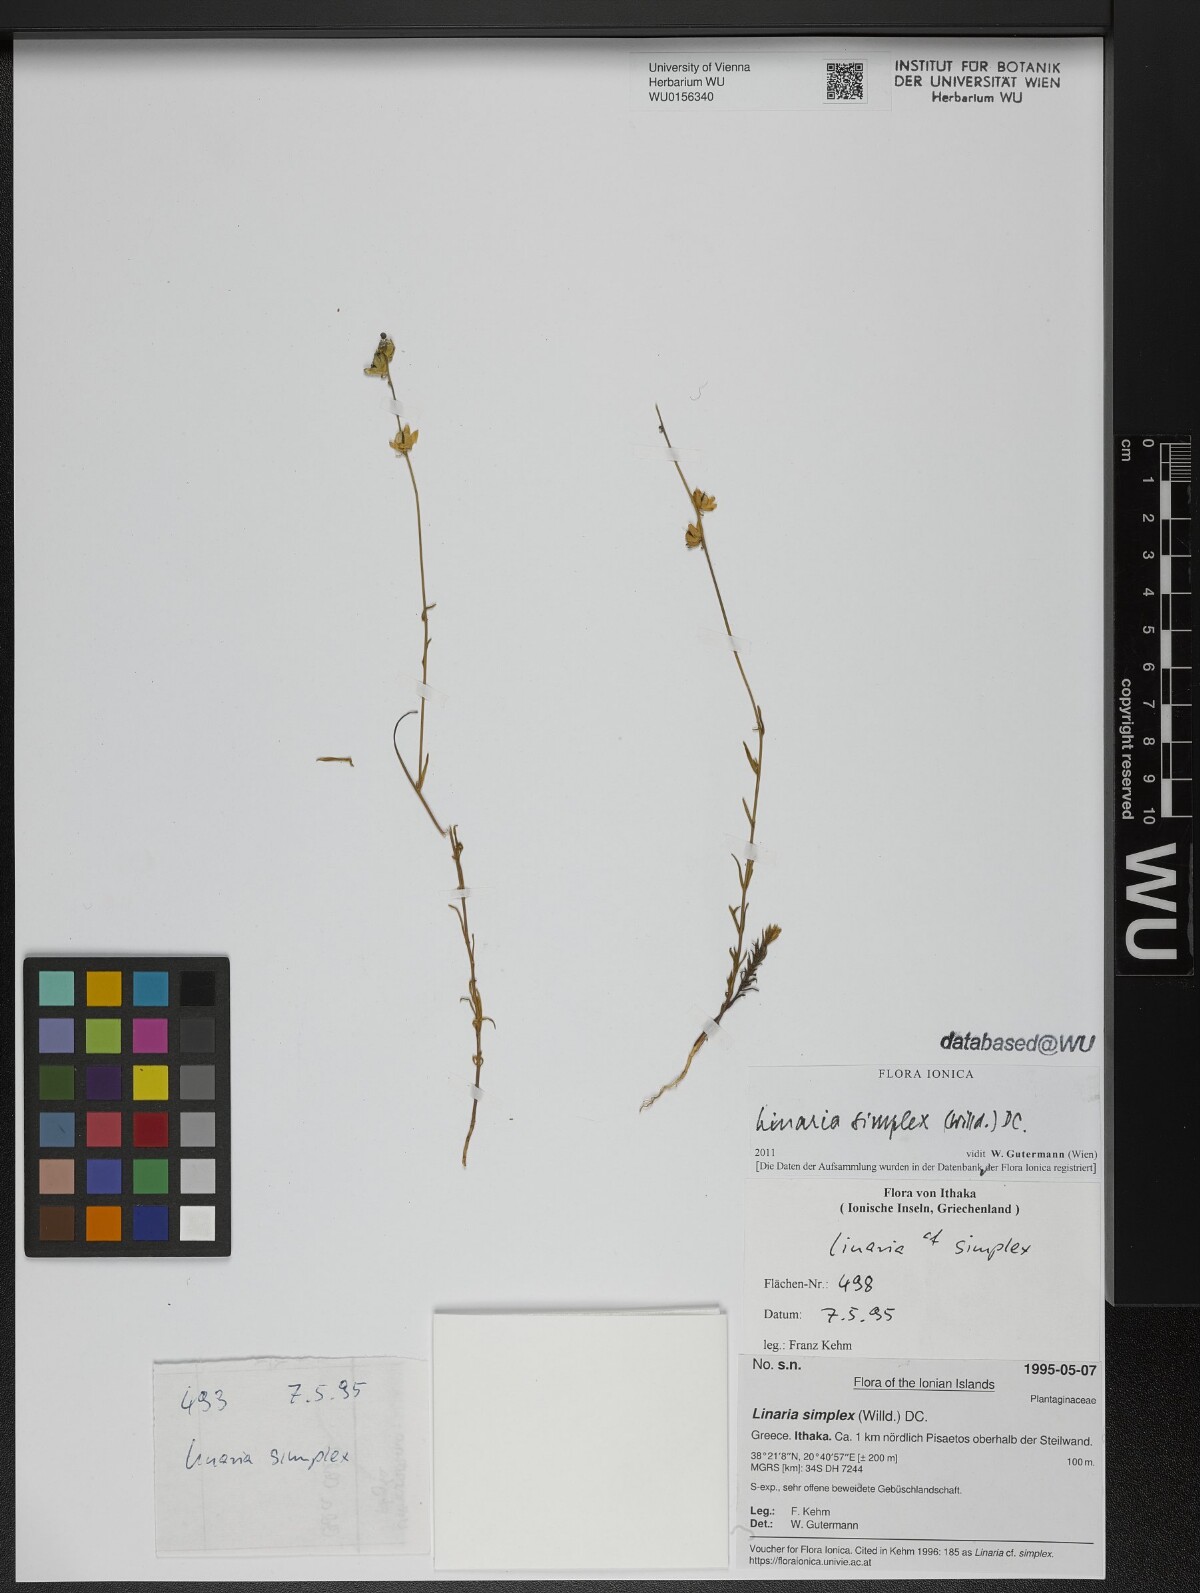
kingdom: Plantae
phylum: Tracheophyta
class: Magnoliopsida
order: Lamiales
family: Plantaginaceae
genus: Linaria
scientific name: Linaria simplex
